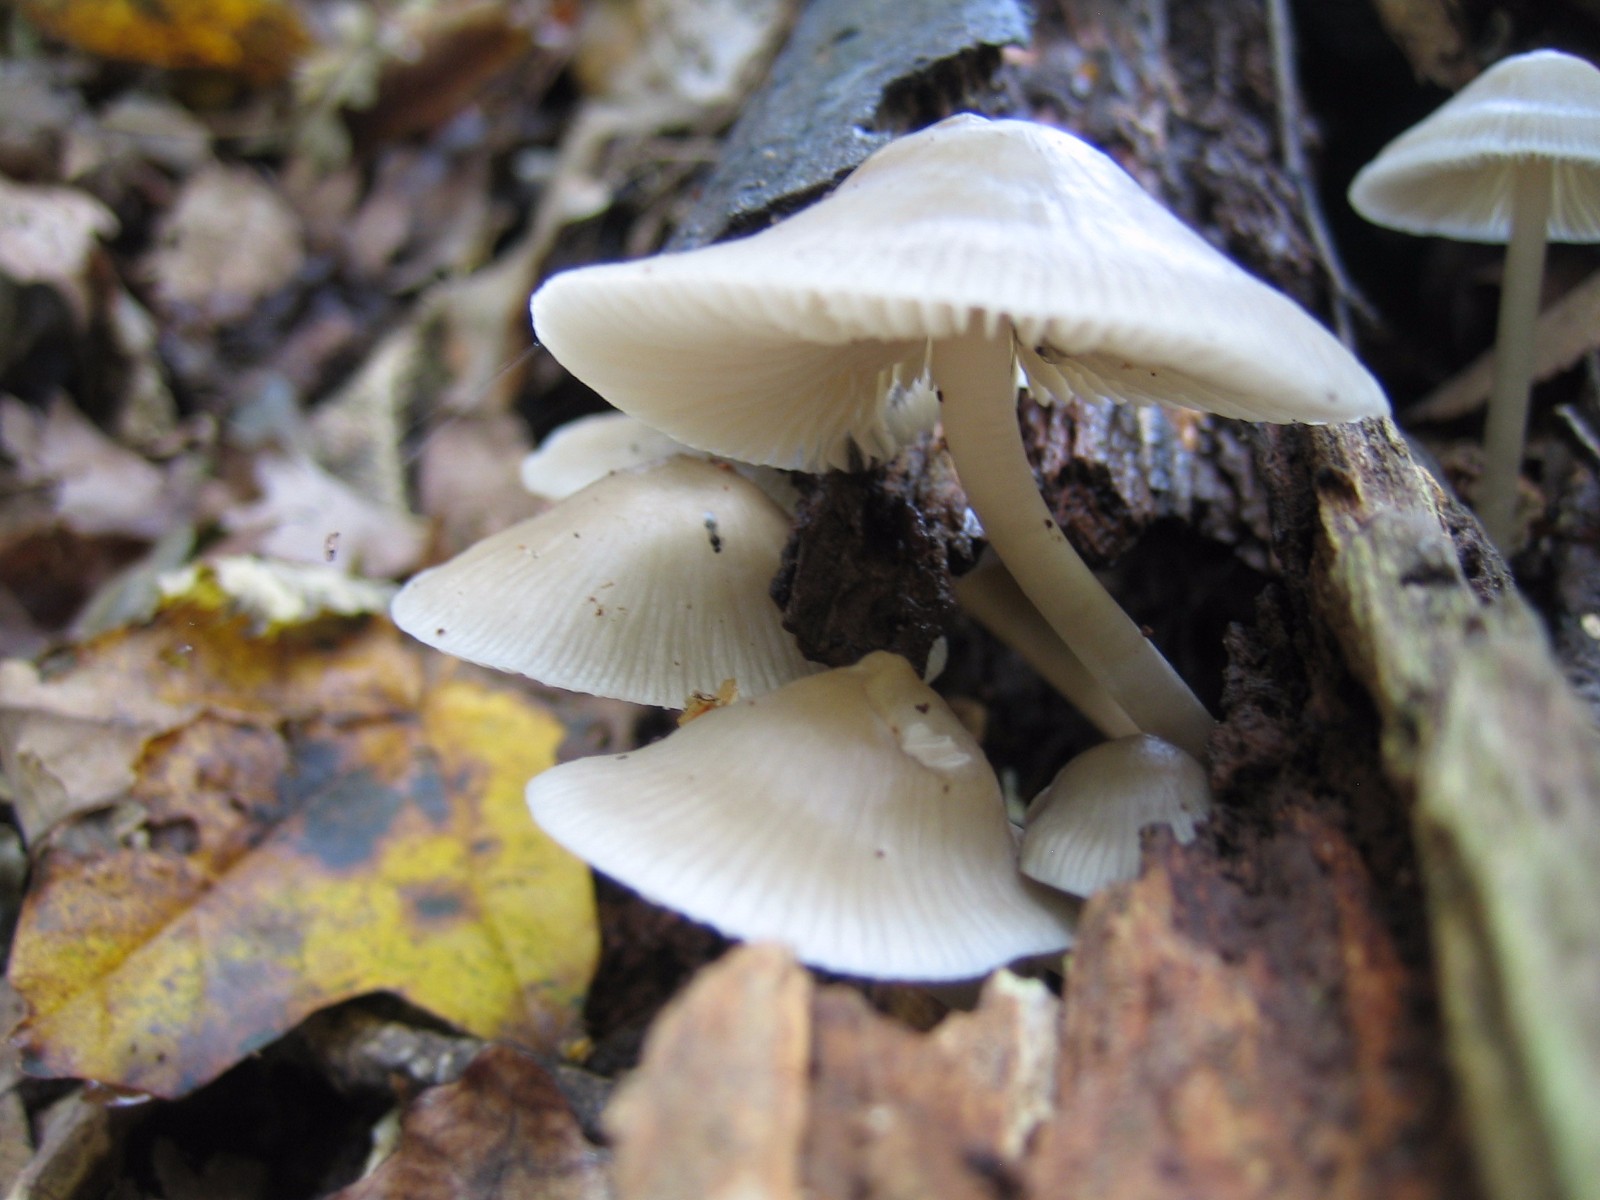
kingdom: Fungi
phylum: Basidiomycota
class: Agaricomycetes
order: Agaricales
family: Mycenaceae
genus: Mycena
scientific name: Mycena galericulata
